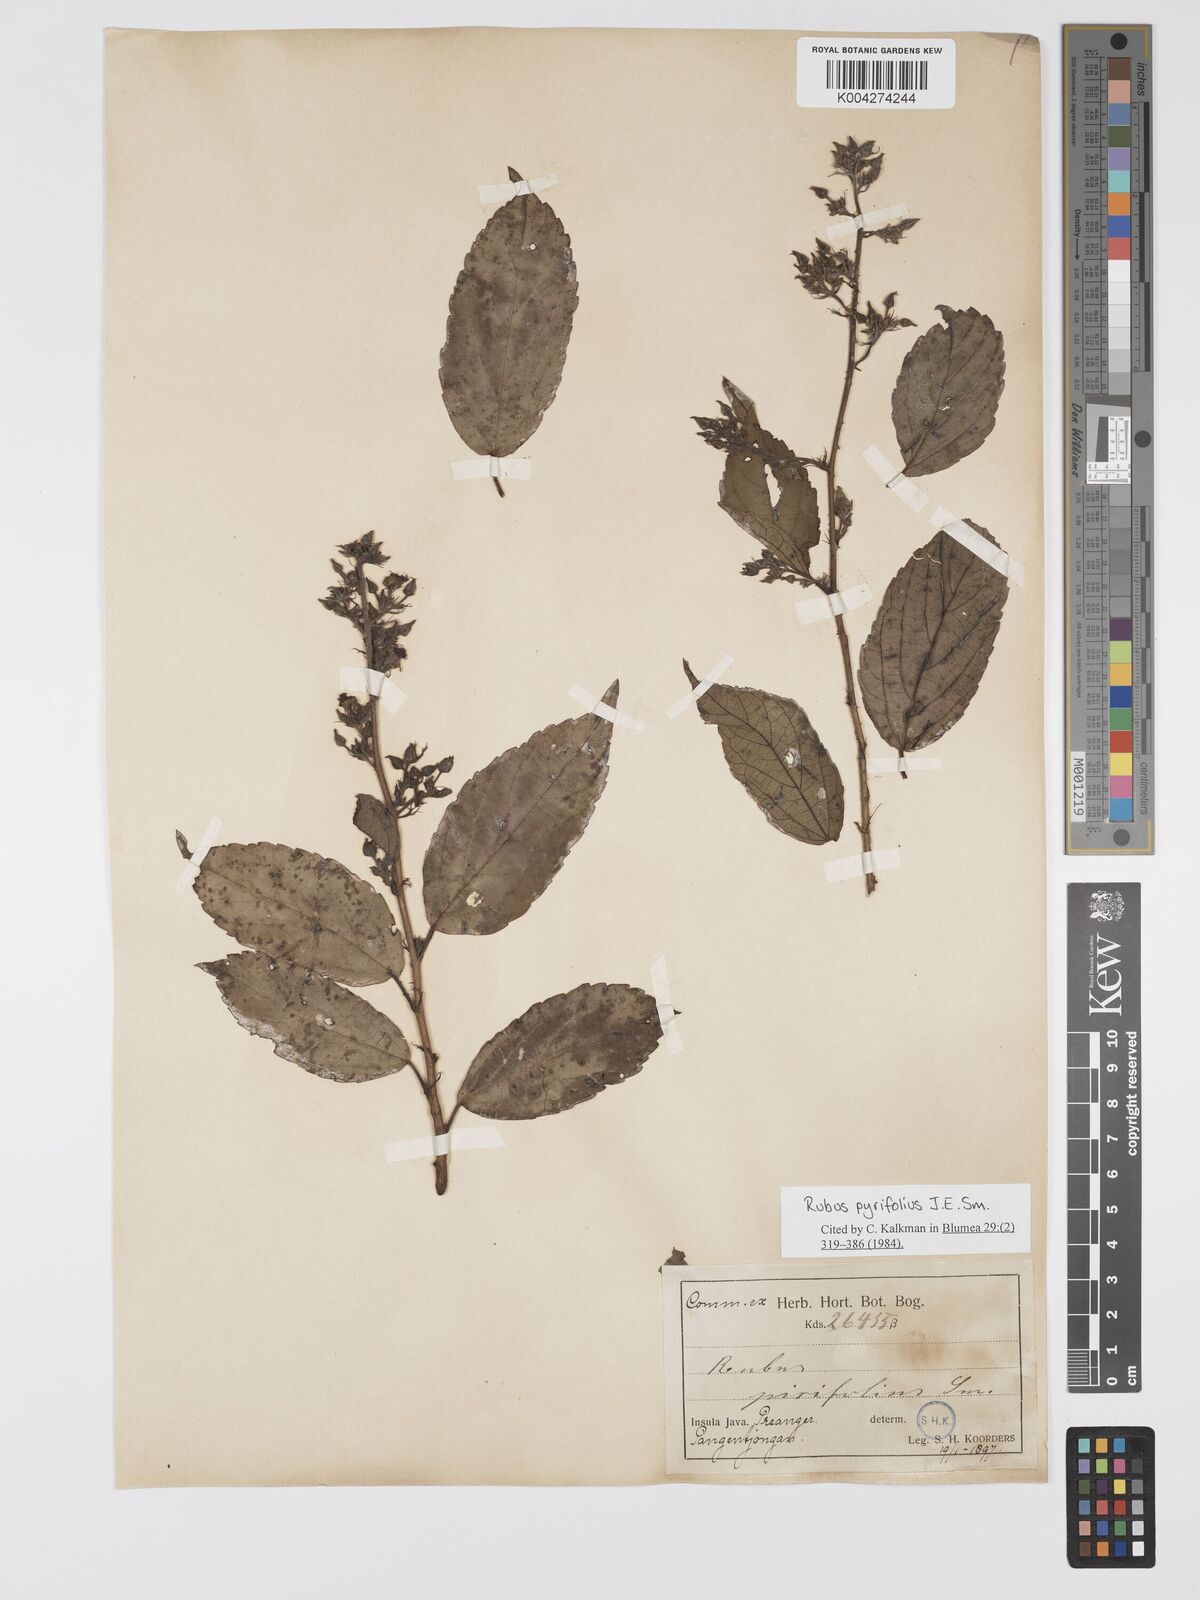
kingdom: Plantae
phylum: Tracheophyta
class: Magnoliopsida
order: Rosales
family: Rosaceae
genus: Rubus
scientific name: Rubus pirifolius
